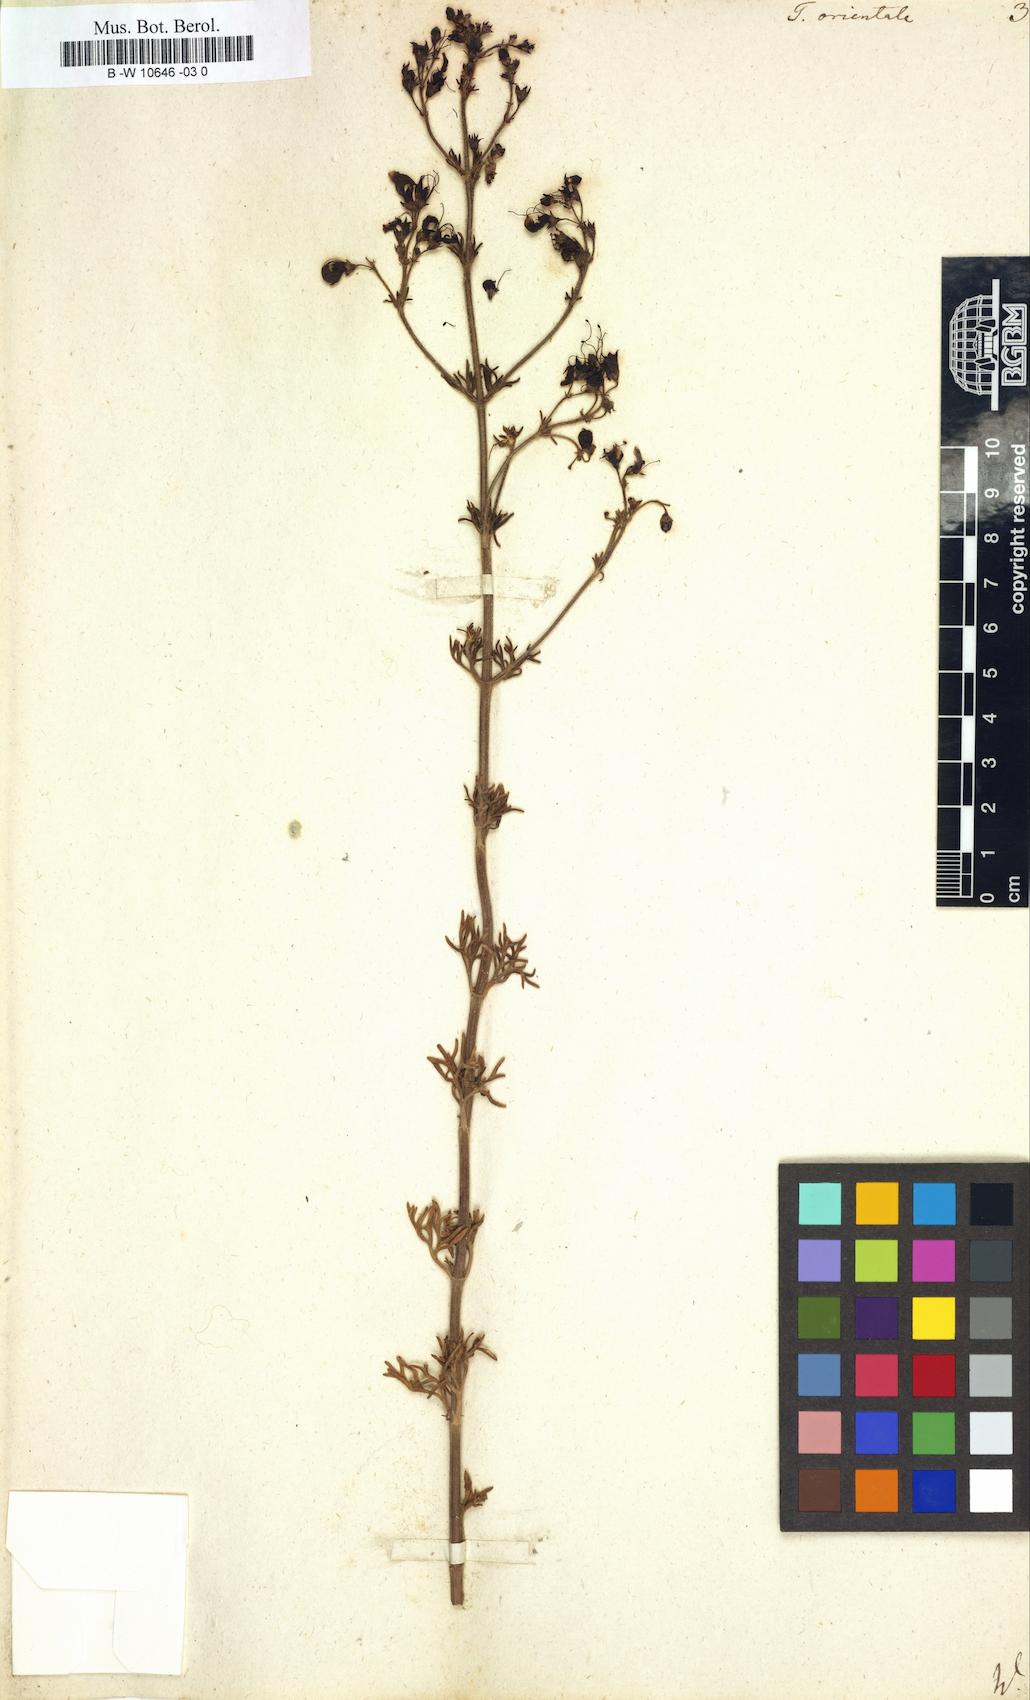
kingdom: Plantae
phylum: Tracheophyta
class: Magnoliopsida
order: Lamiales
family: Lamiaceae
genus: Teucrium
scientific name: Teucrium orientale
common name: Oriental germander
